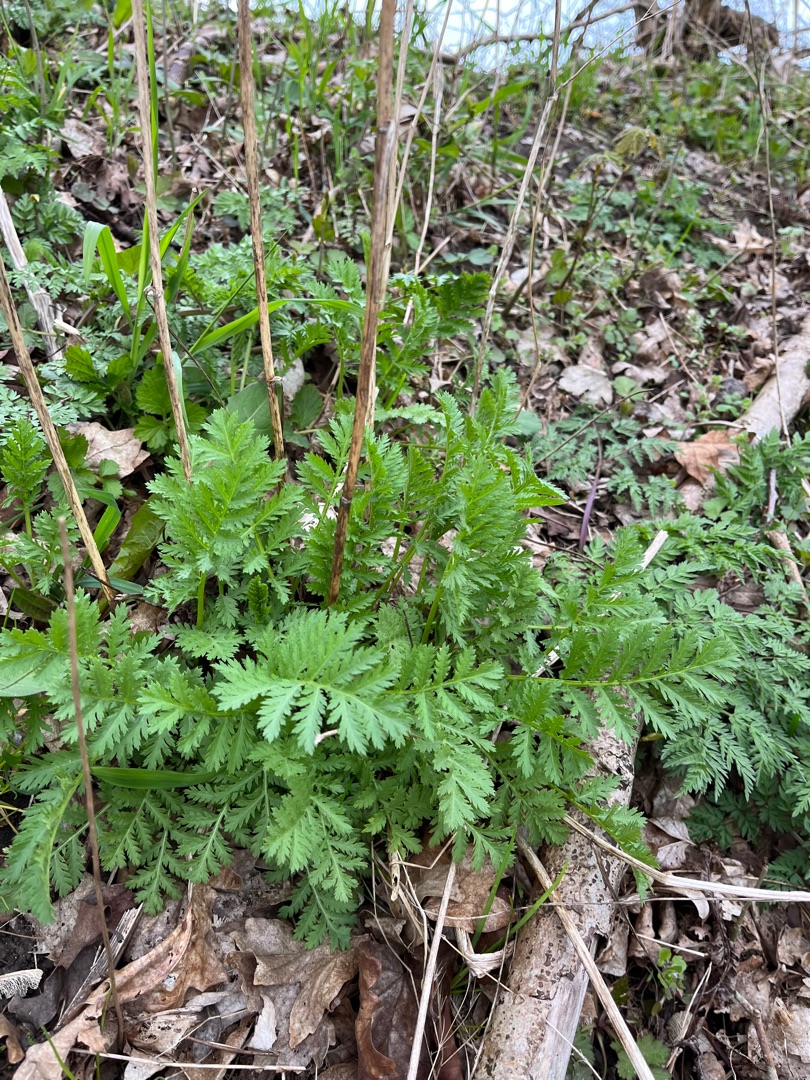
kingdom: Plantae
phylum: Tracheophyta
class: Magnoliopsida
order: Asterales
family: Asteraceae
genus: Tanacetum
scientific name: Tanacetum vulgare
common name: Rejnfan
